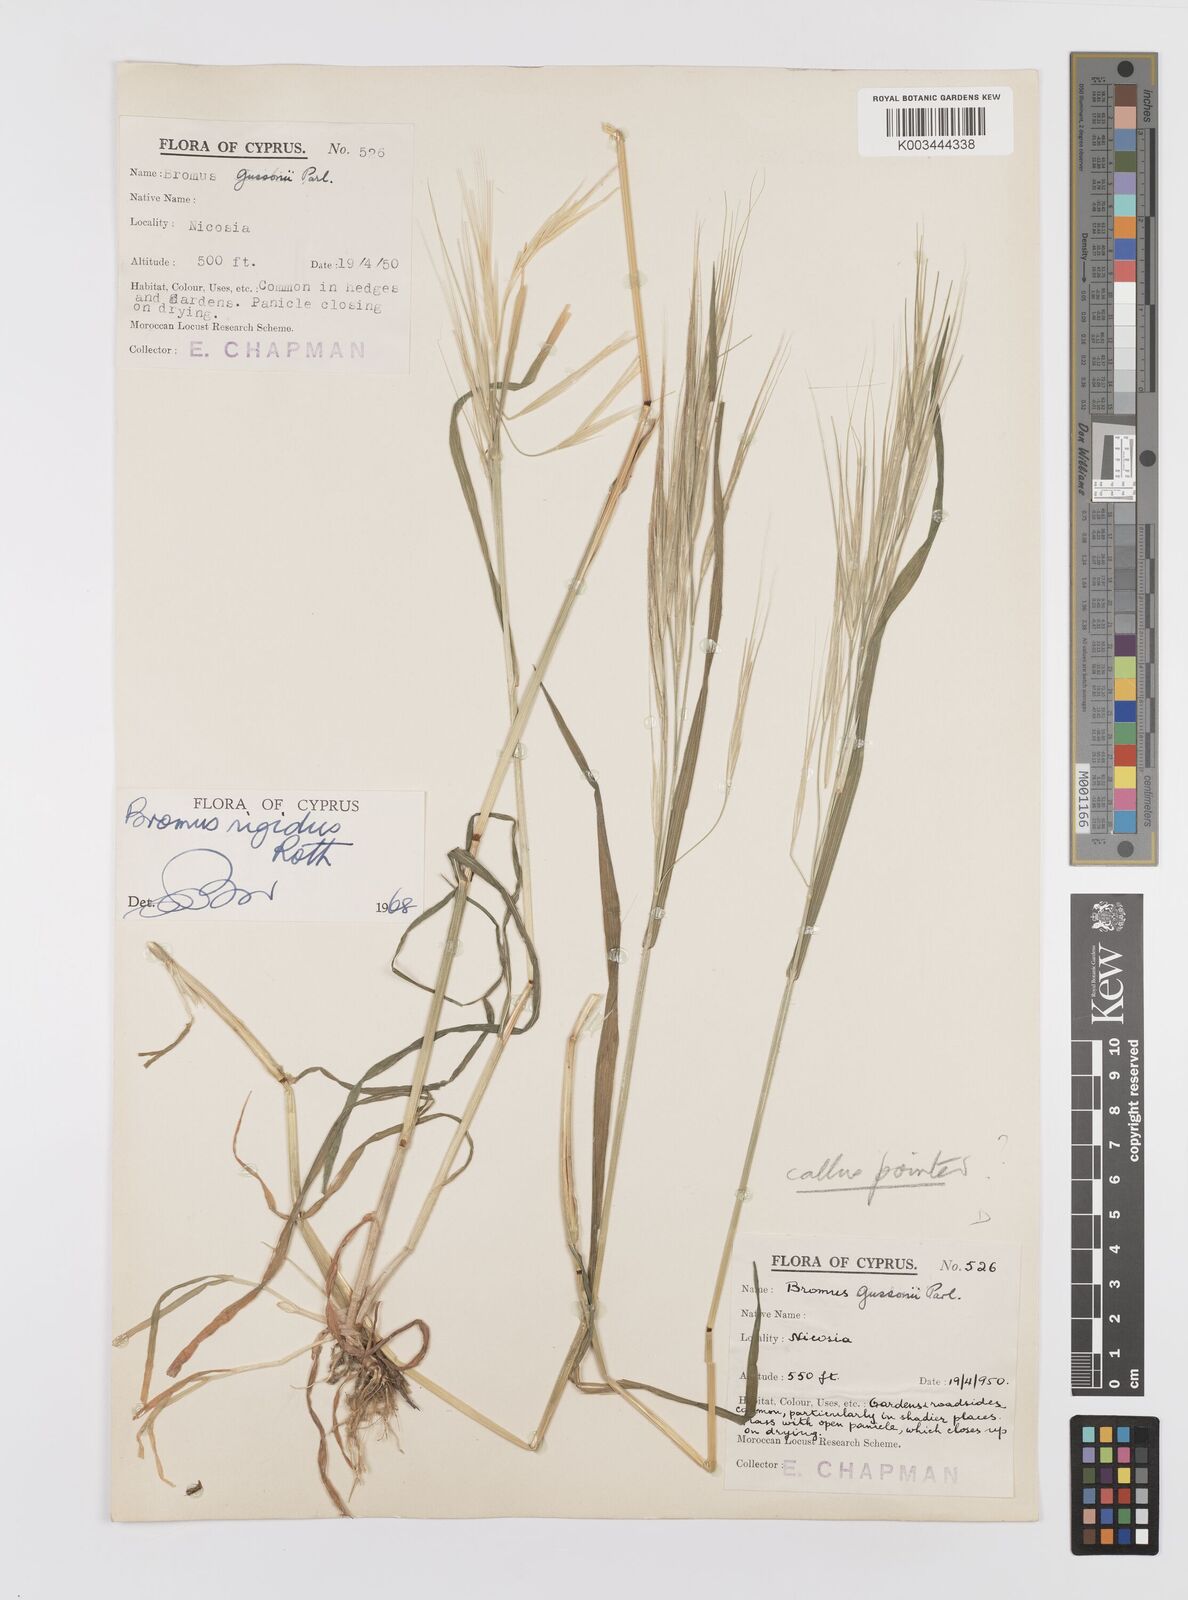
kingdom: Plantae
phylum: Tracheophyta
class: Liliopsida
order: Poales
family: Poaceae
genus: Bromus
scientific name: Bromus diandrus
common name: Ripgut brome
